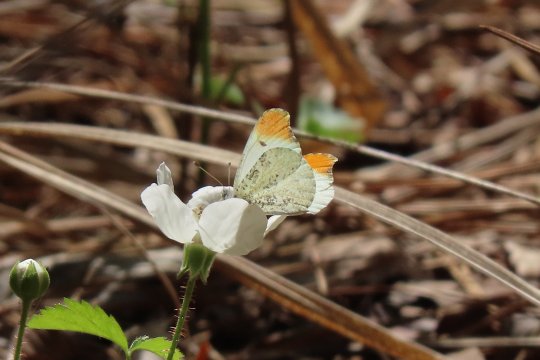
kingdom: Animalia
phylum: Arthropoda
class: Insecta
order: Lepidoptera
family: Pieridae
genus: Anthocharis
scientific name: Anthocharis midea
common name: Falcate Orangetip
